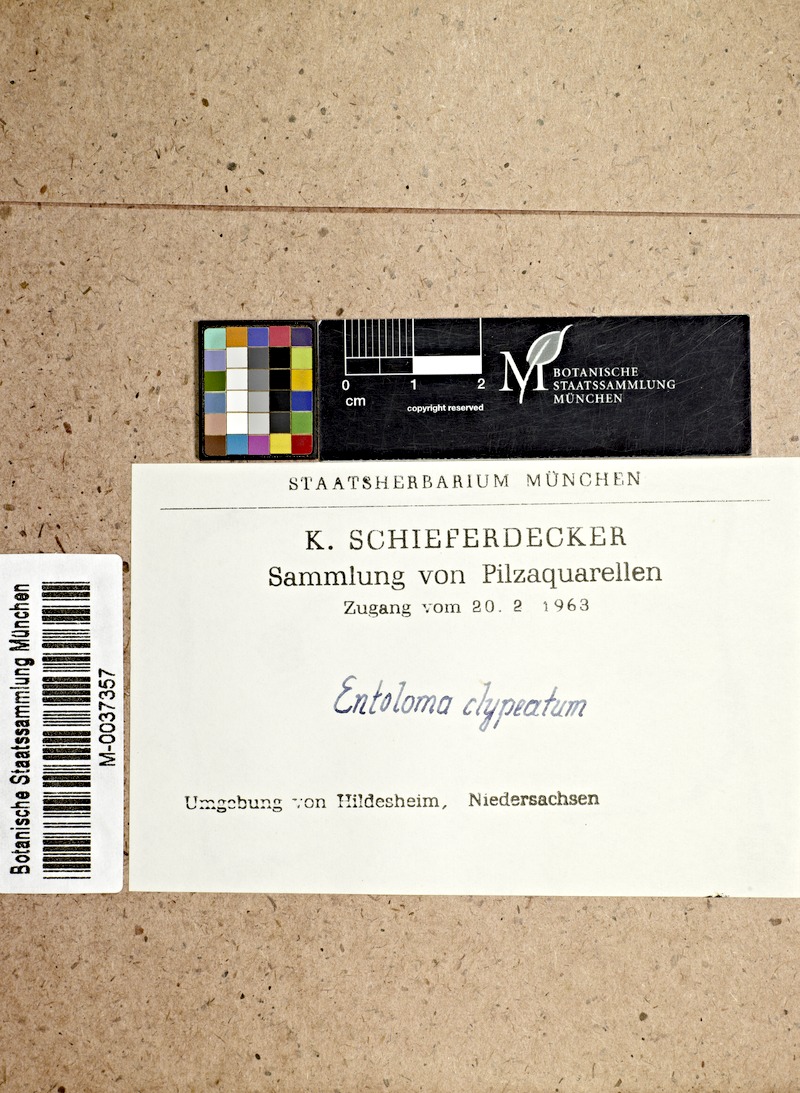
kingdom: Fungi
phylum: Basidiomycota
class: Agaricomycetes
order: Agaricales
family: Entolomataceae
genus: Entoloma
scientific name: Entoloma clypeatum
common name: Shield pinkgill
